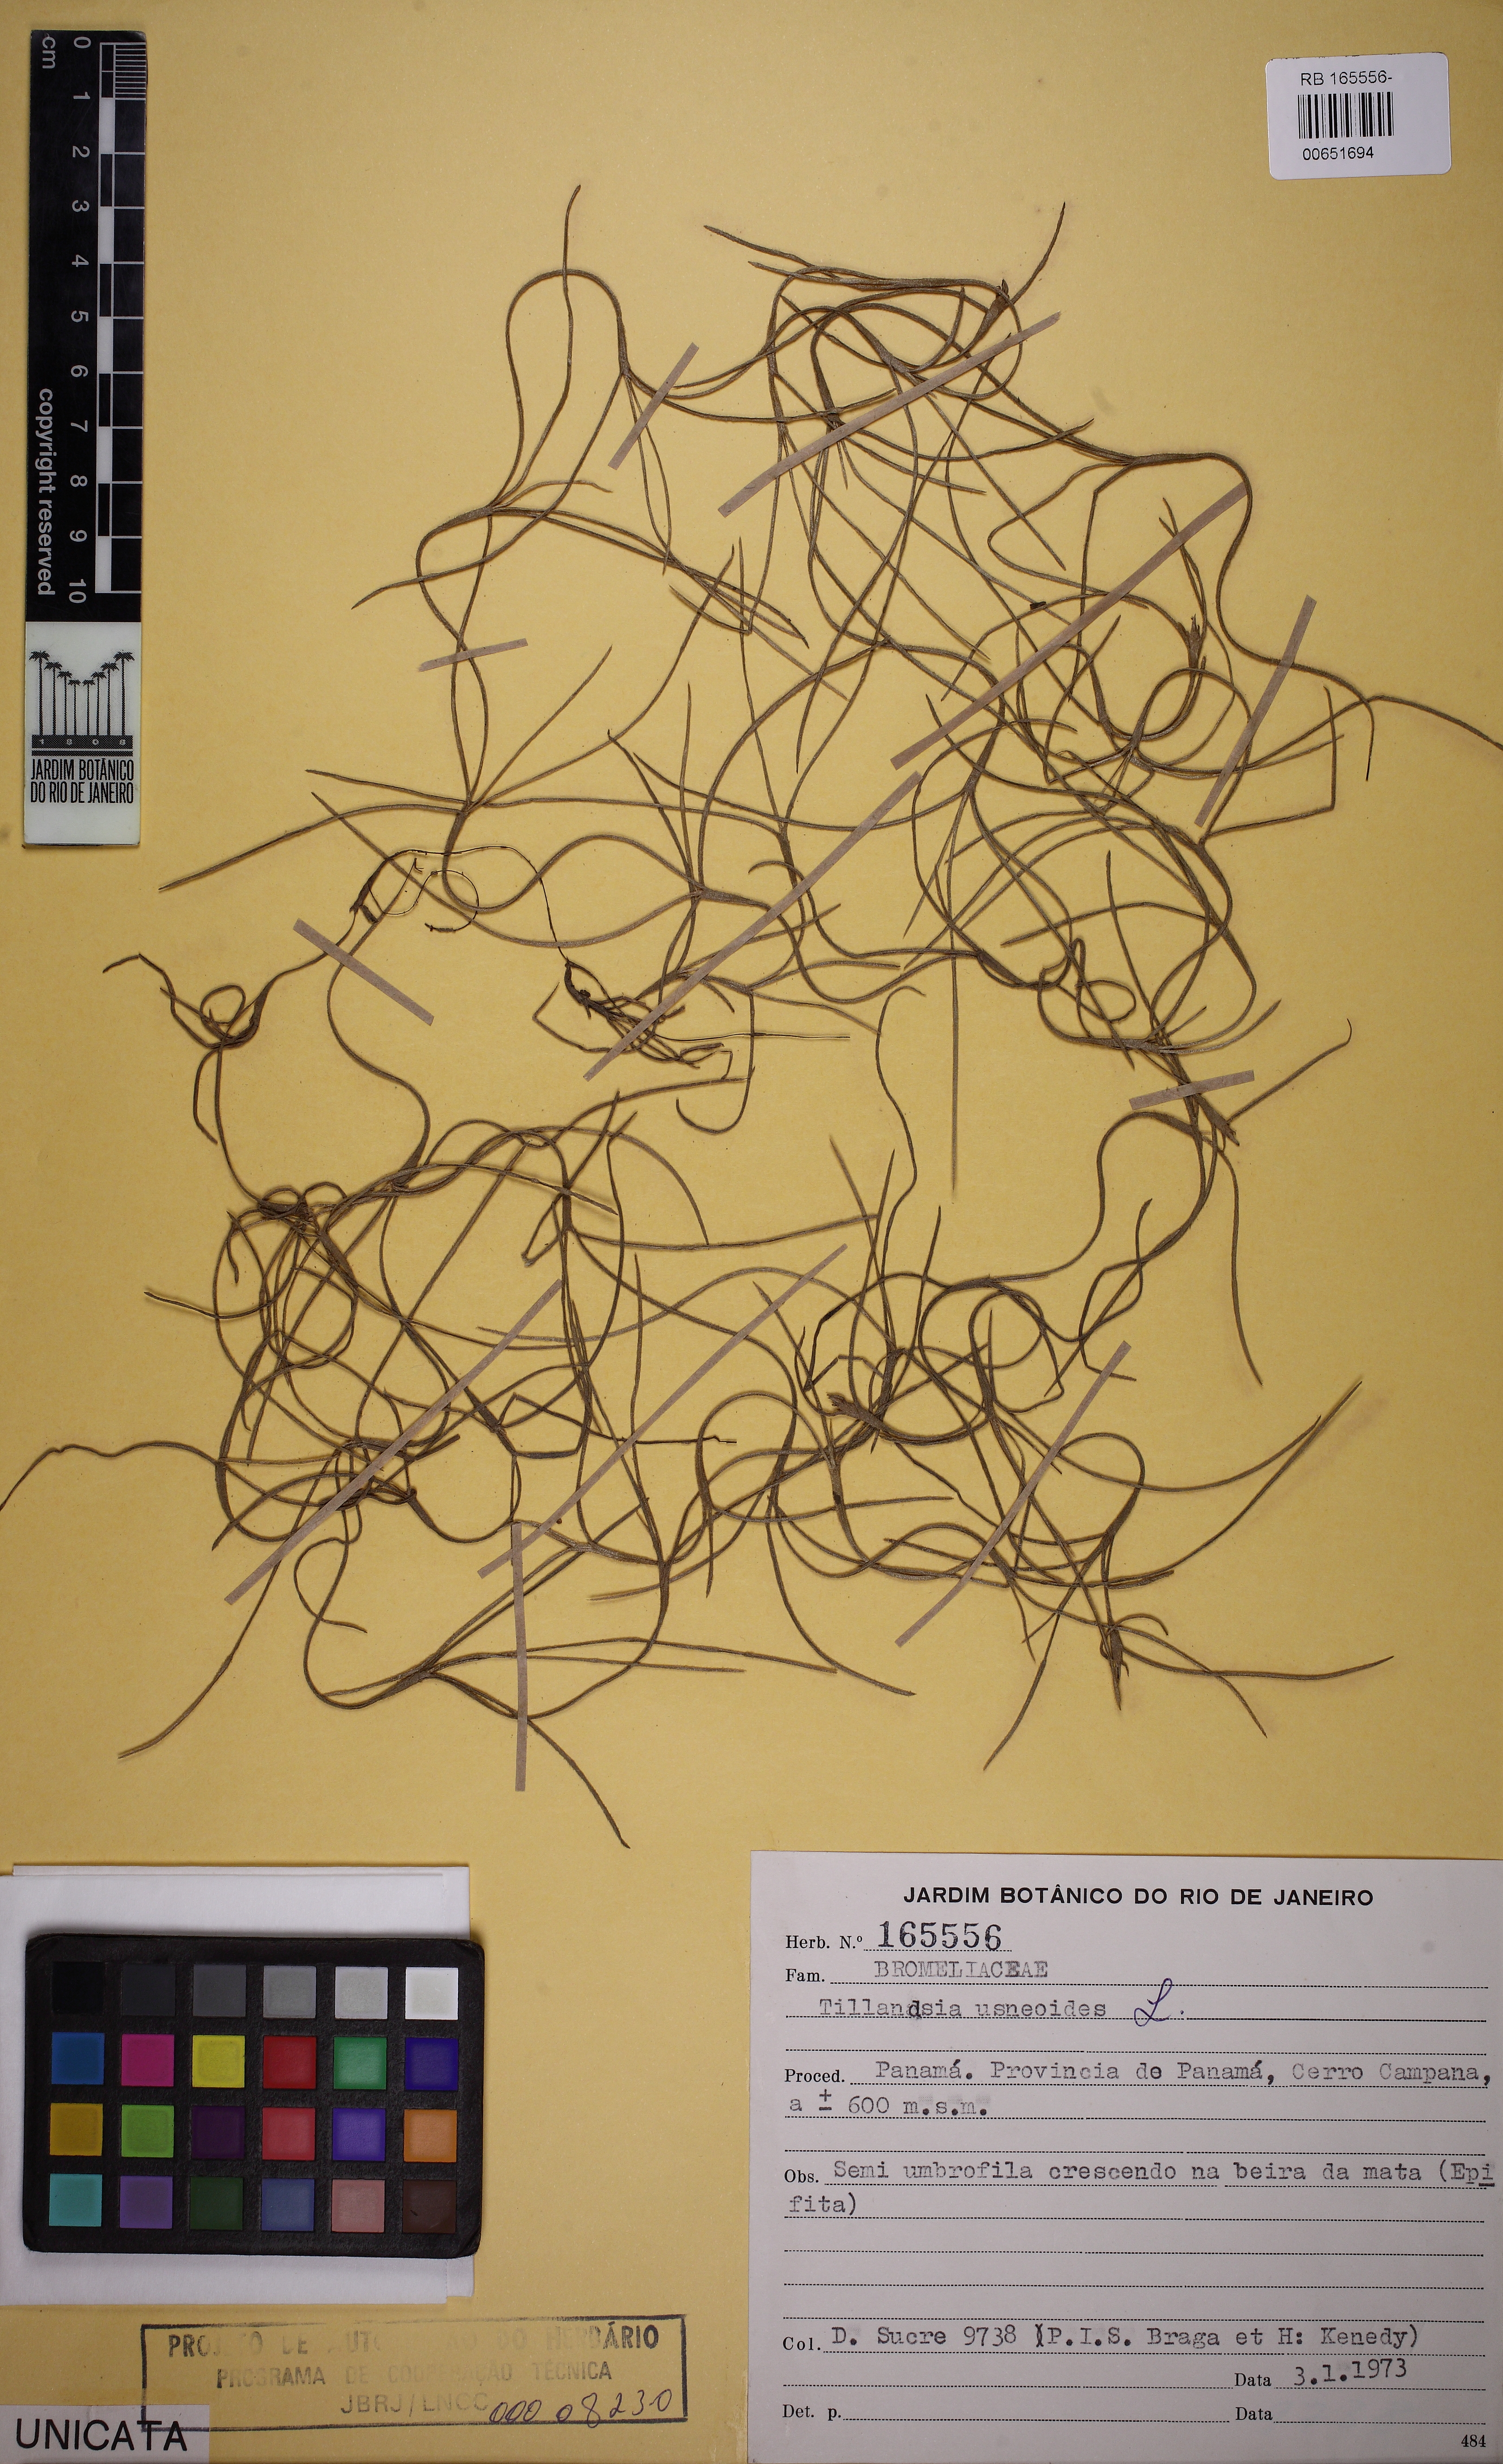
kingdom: Plantae
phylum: Tracheophyta
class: Liliopsida
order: Poales
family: Bromeliaceae
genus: Tillandsia
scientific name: Tillandsia usneoides
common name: Spanish moss
